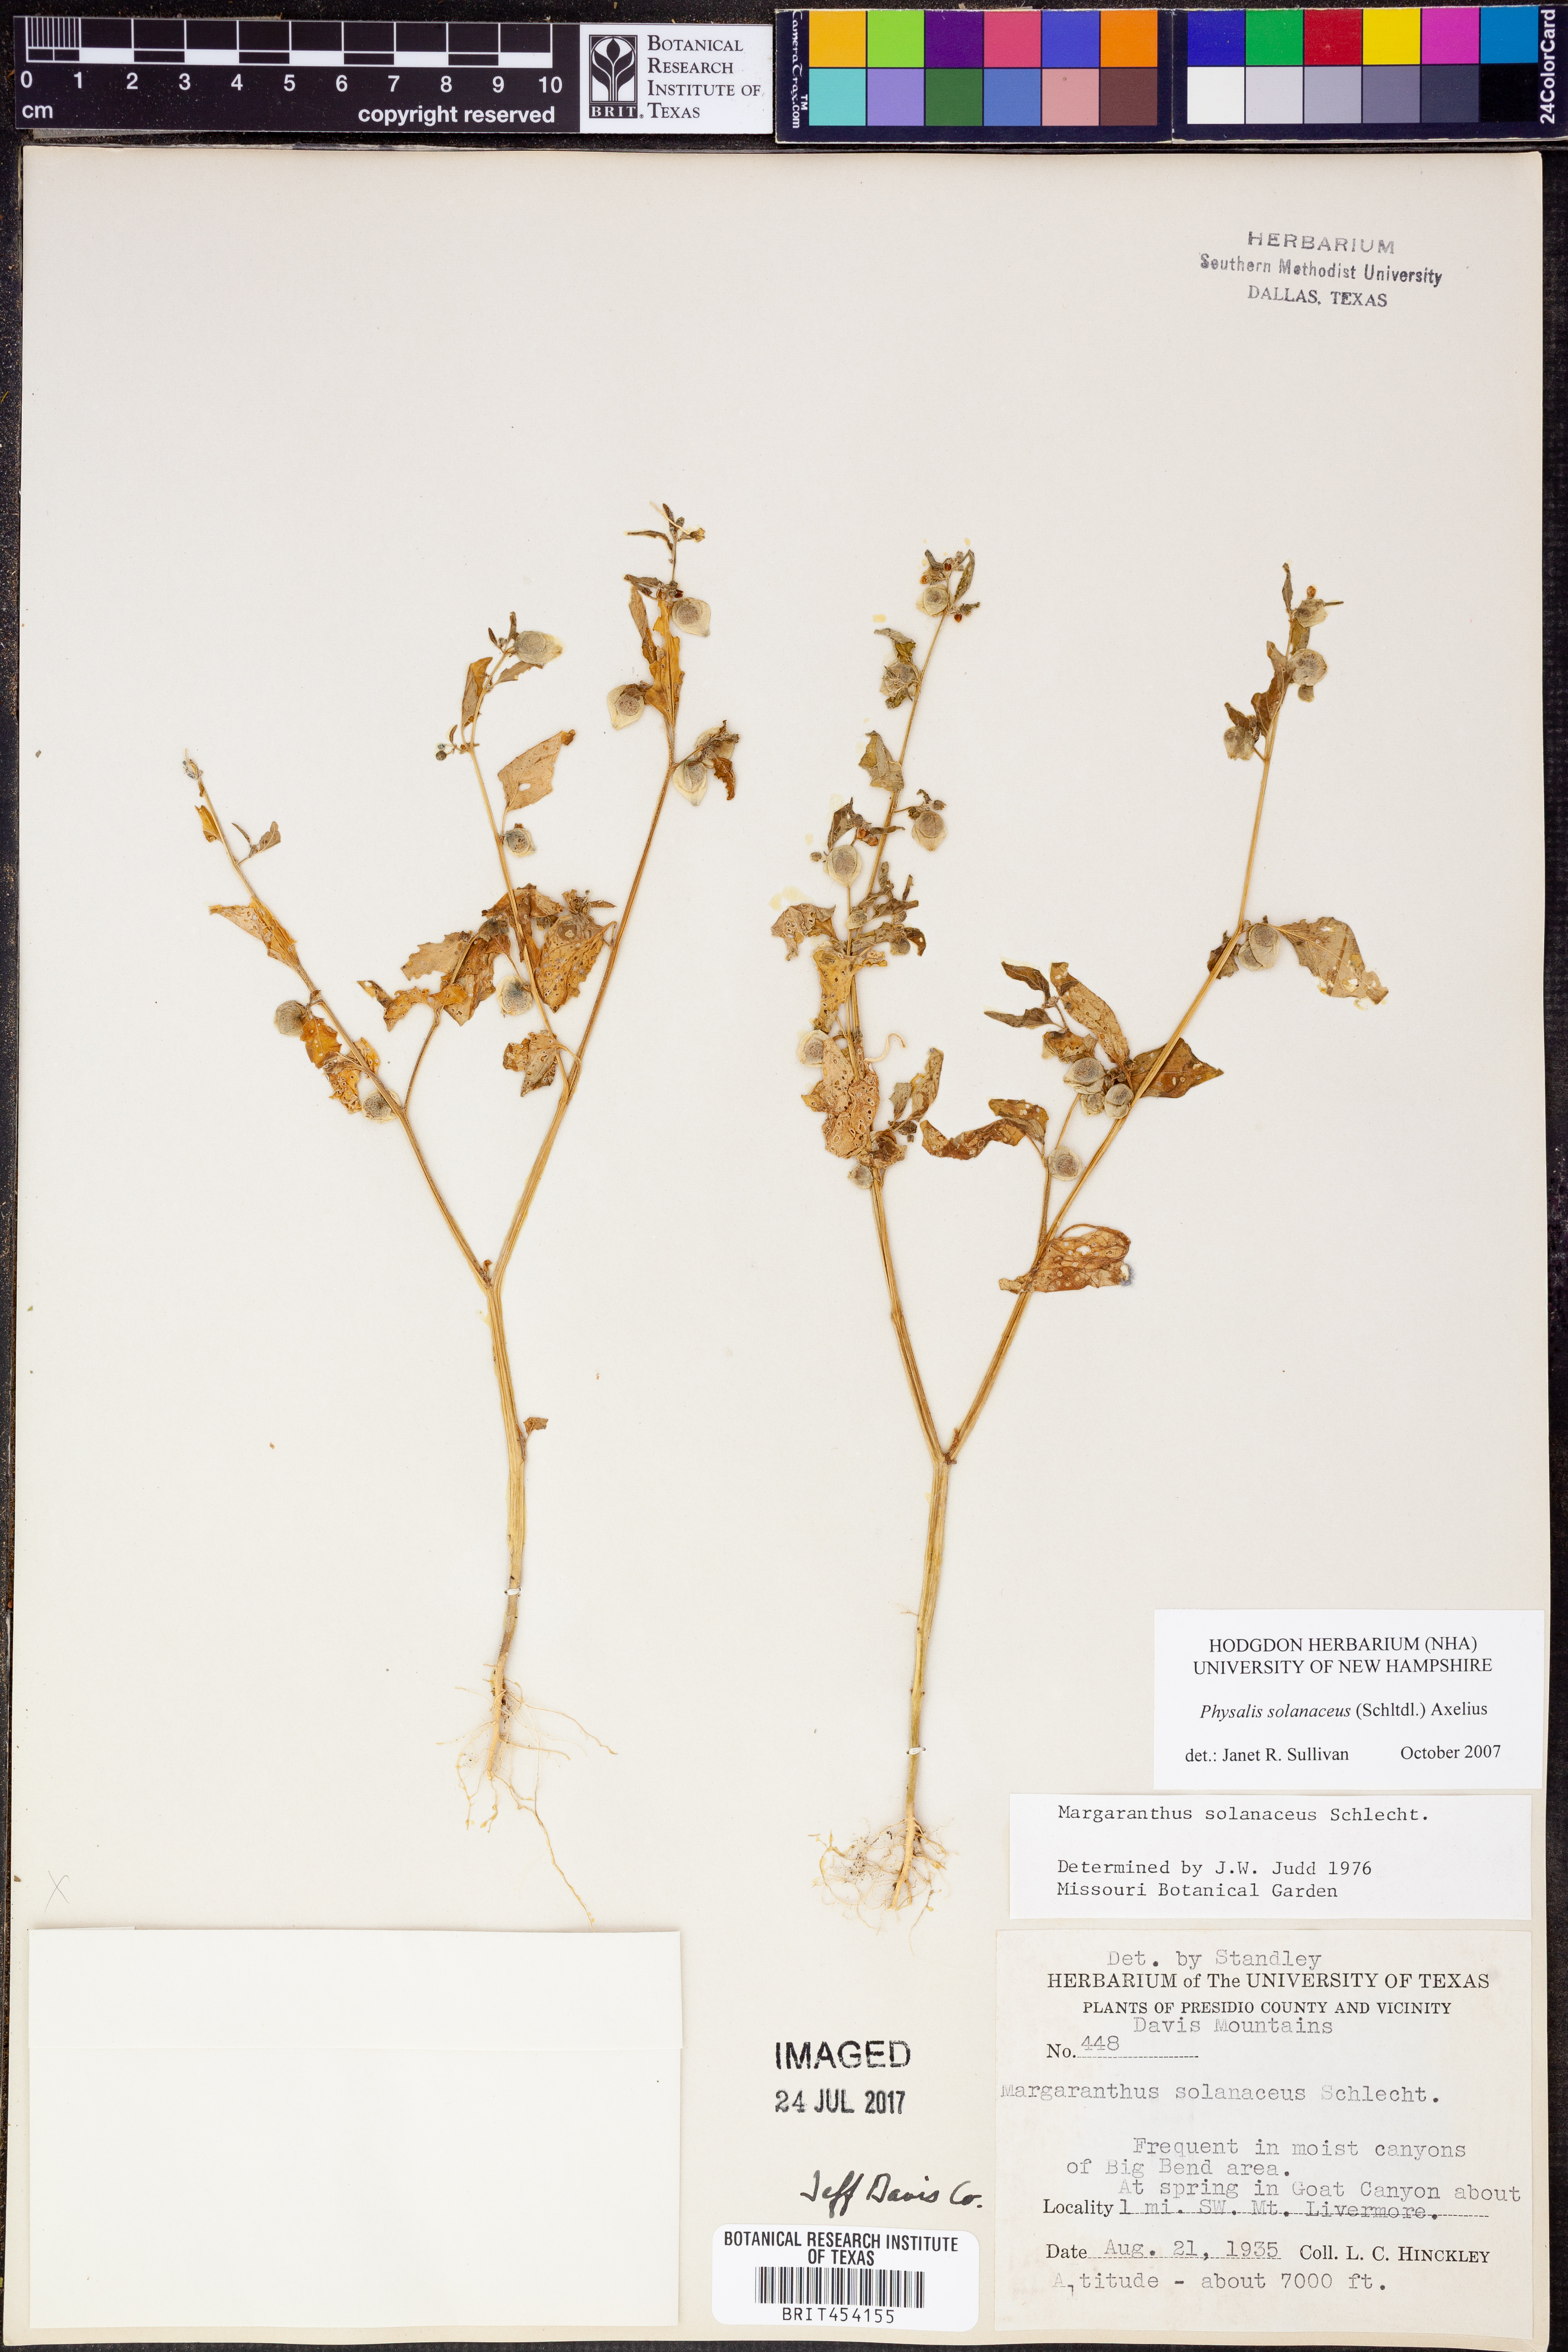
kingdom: Plantae
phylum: Tracheophyta
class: Magnoliopsida
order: Solanales
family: Solanaceae
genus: Physalis
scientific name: Physalis solanacea
